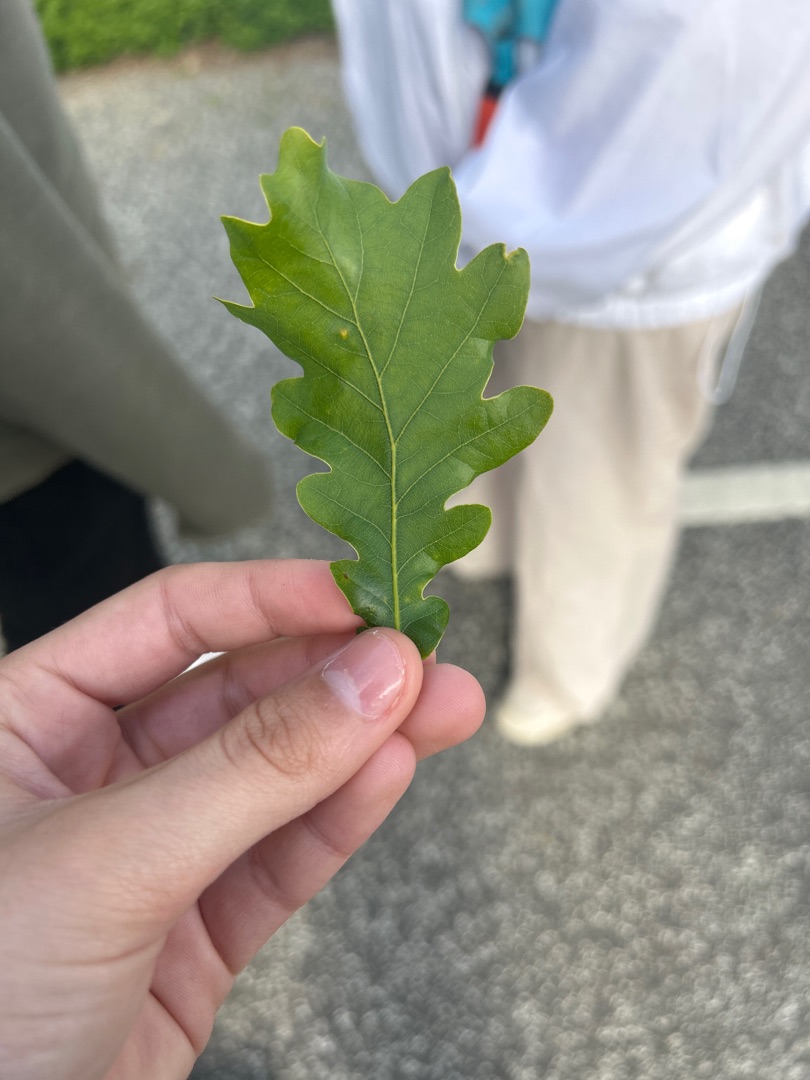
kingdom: Plantae
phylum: Tracheophyta
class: Magnoliopsida
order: Fagales
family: Fagaceae
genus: Quercus
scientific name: Quercus robur
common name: Stilk-eg/almindelig eg
